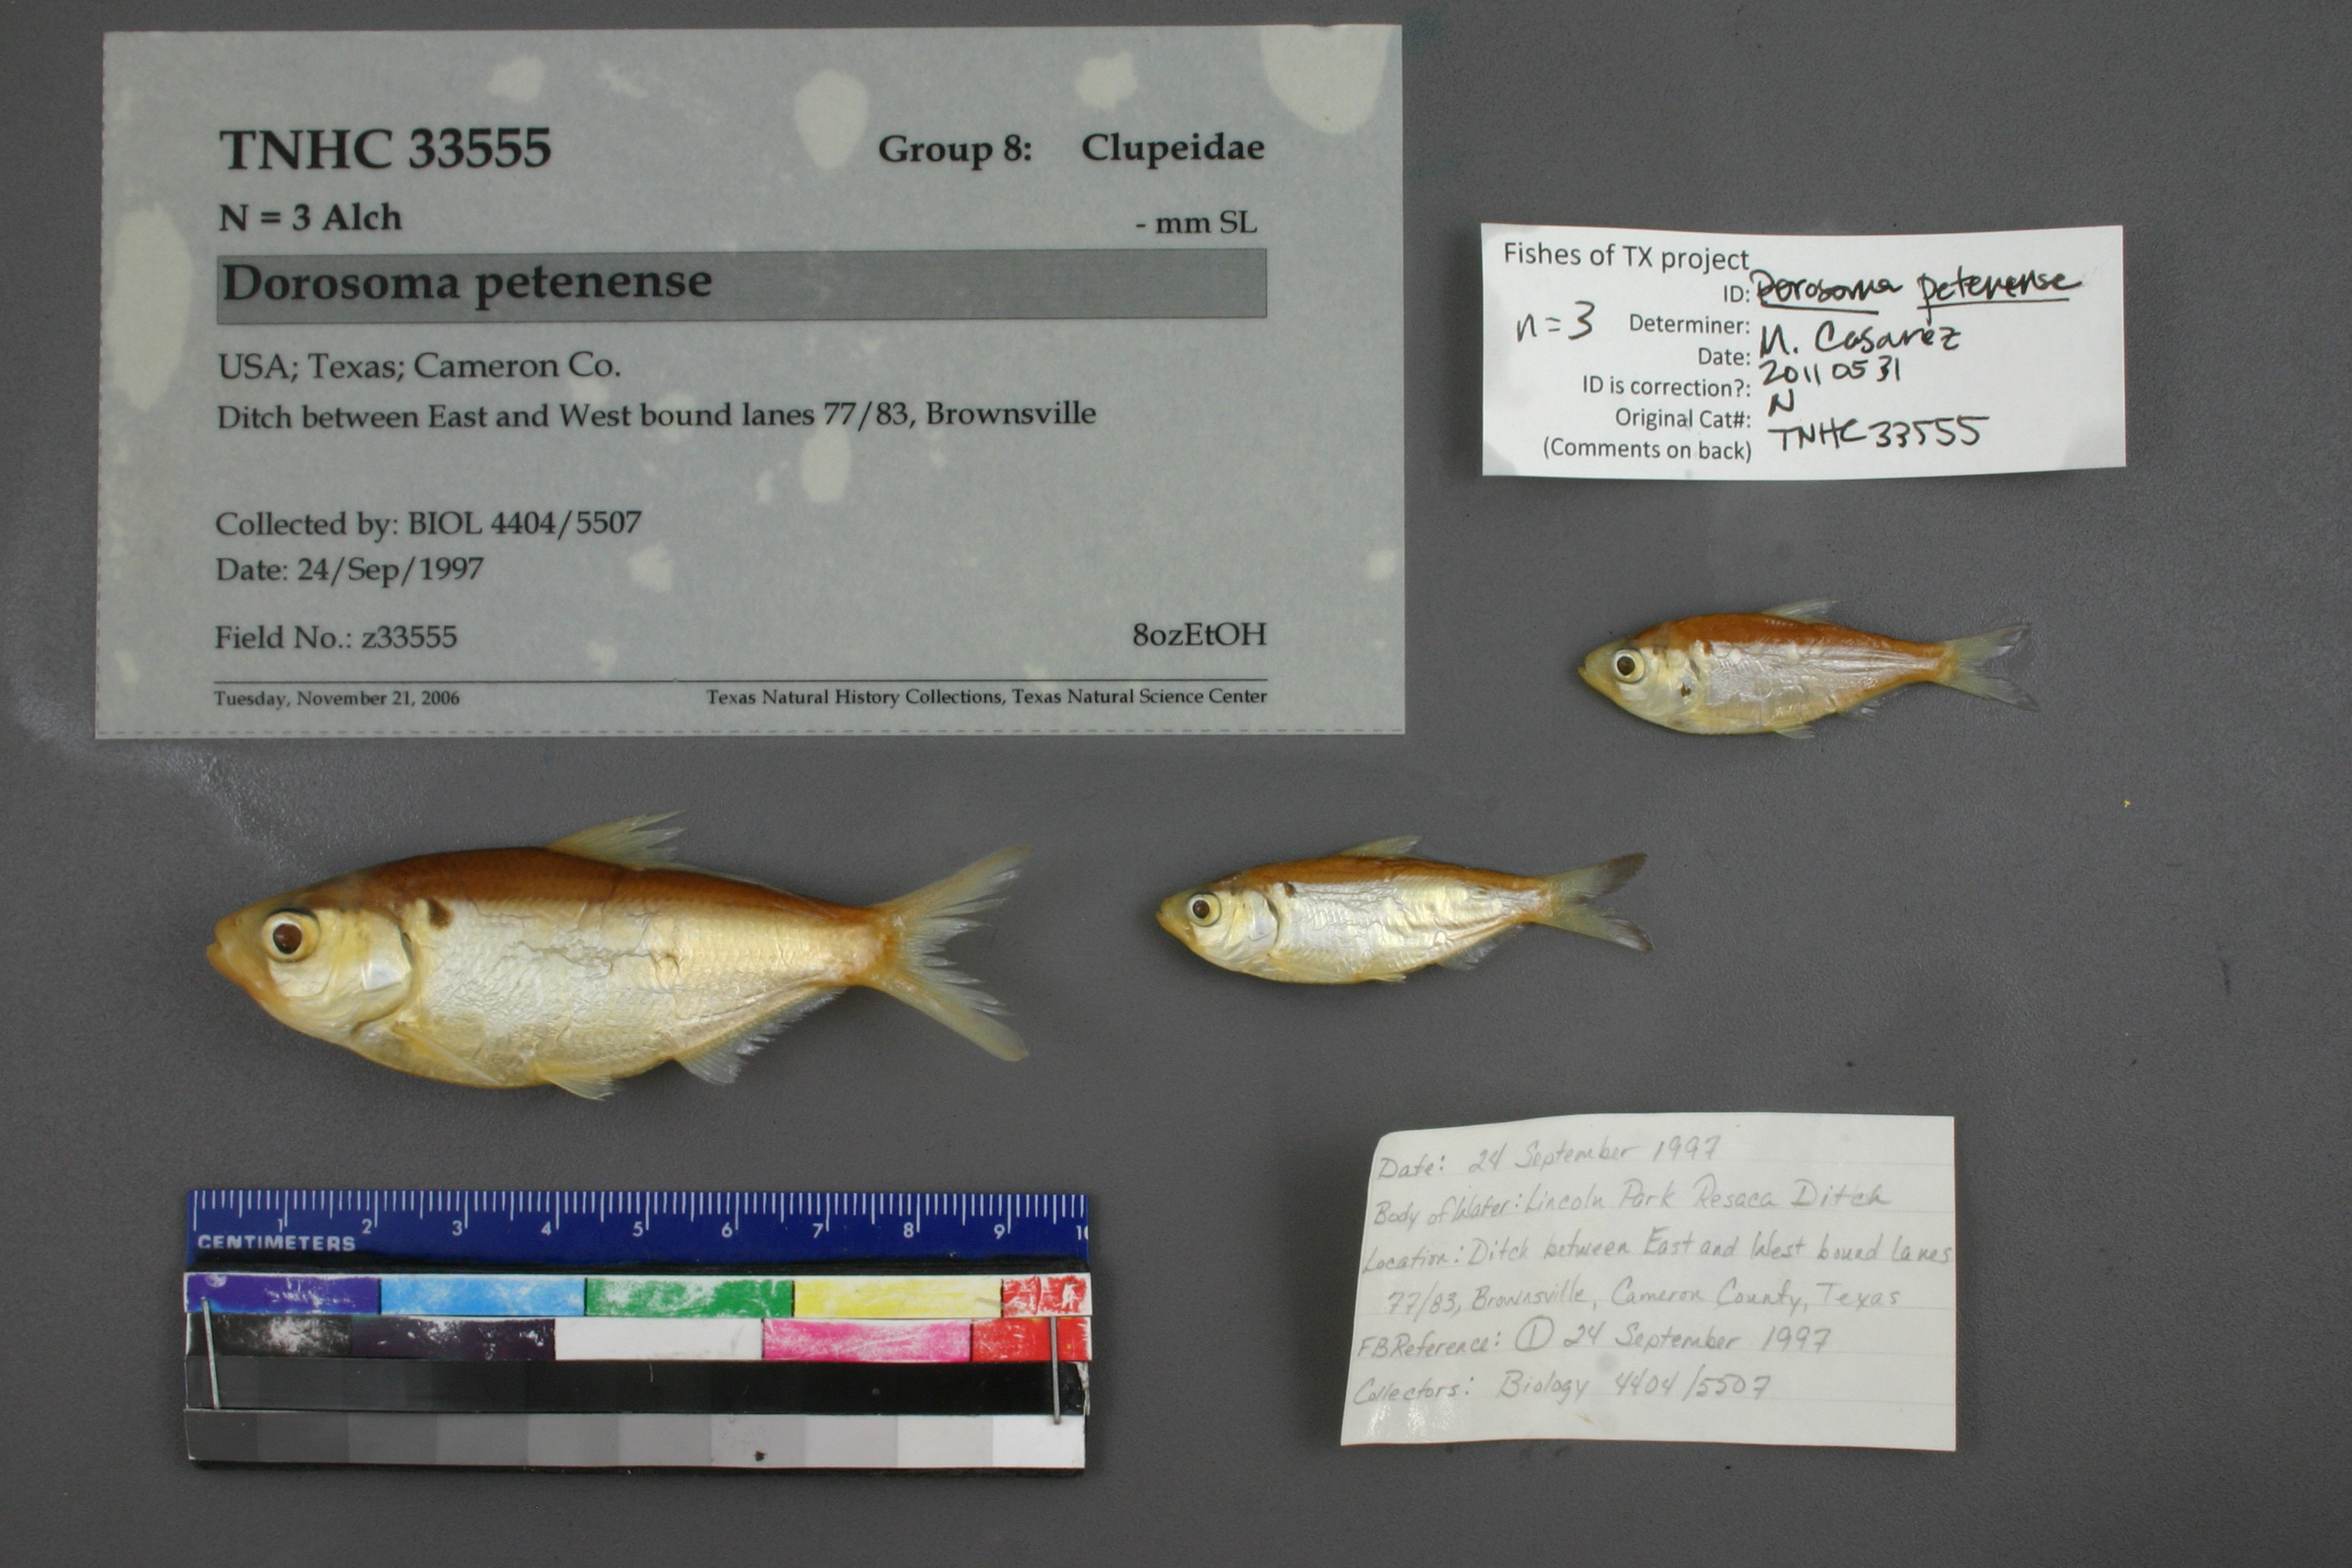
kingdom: Animalia
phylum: Chordata
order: Clupeiformes
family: Clupeidae
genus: Dorosoma
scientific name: Dorosoma petenense
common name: Threadfin shad
